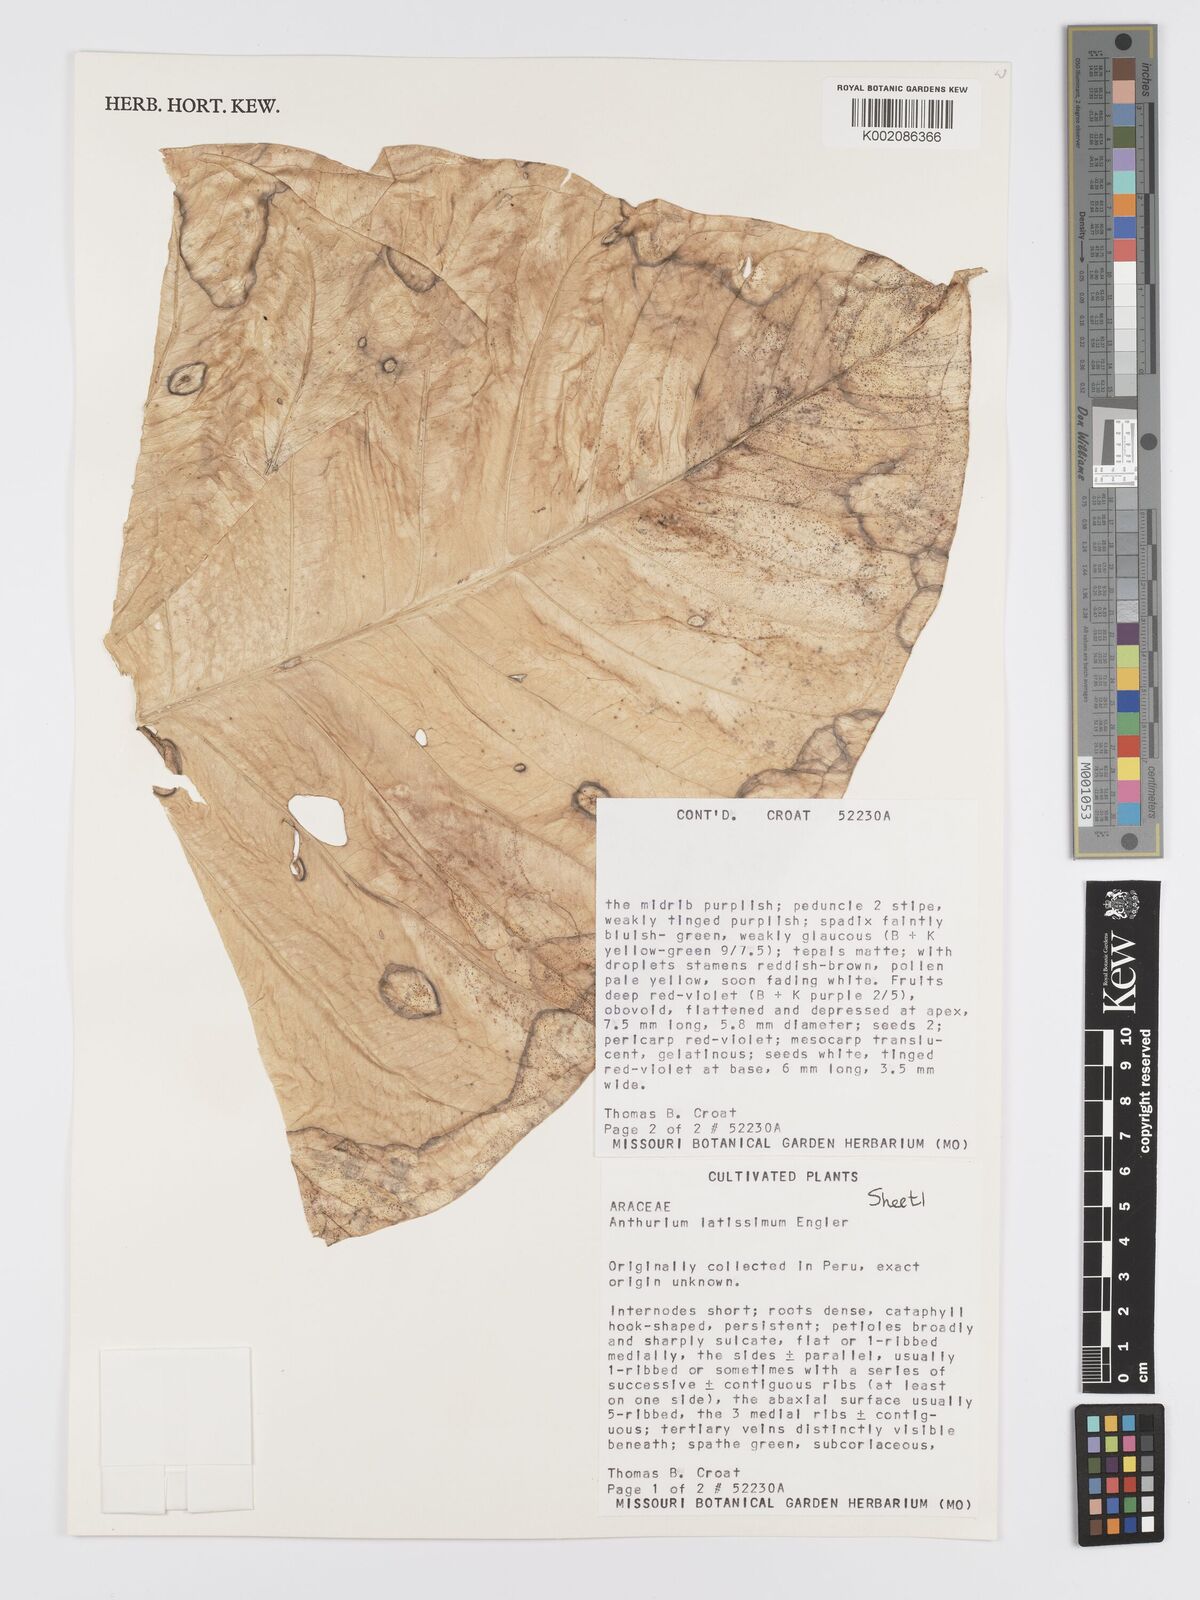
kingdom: Plantae
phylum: Tracheophyta
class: Liliopsida
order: Alismatales
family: Araceae
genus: Anthurium
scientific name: Anthurium latissimum
